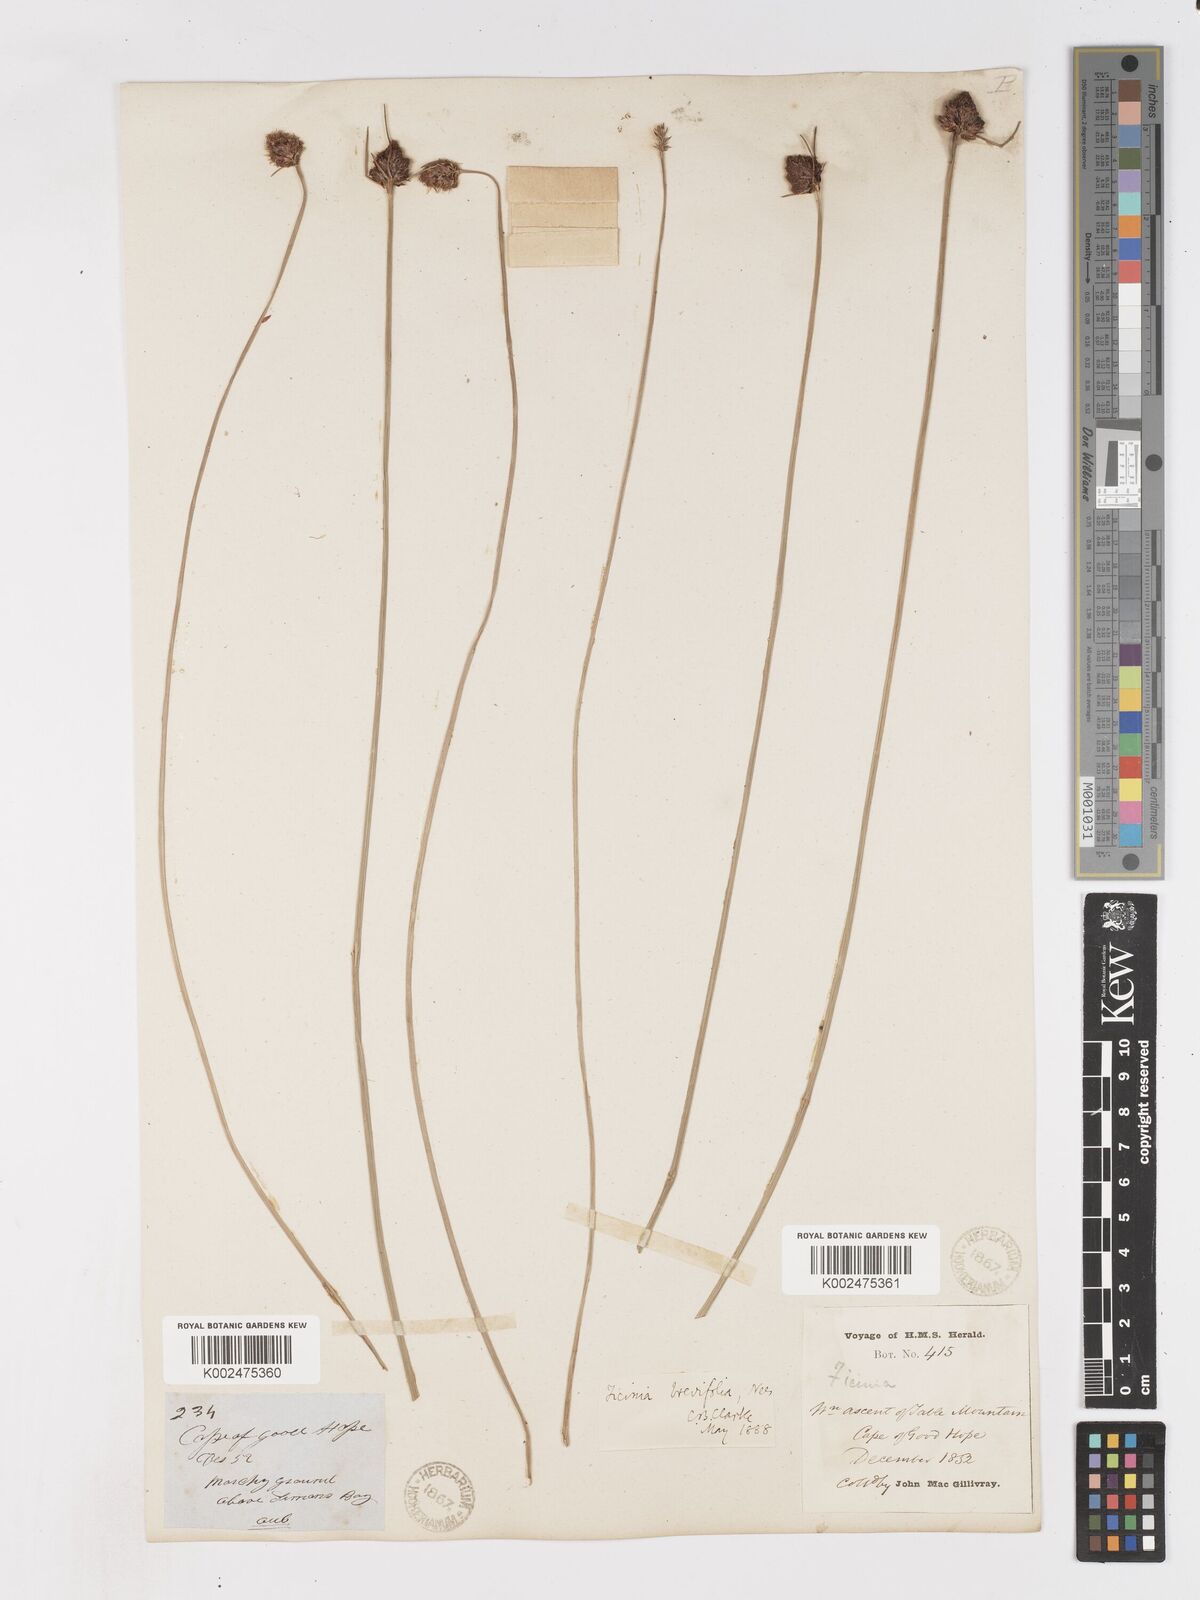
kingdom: Plantae
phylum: Tracheophyta
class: Liliopsida
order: Poales
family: Cyperaceae
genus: Ficinia
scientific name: Ficinia brevifolia
